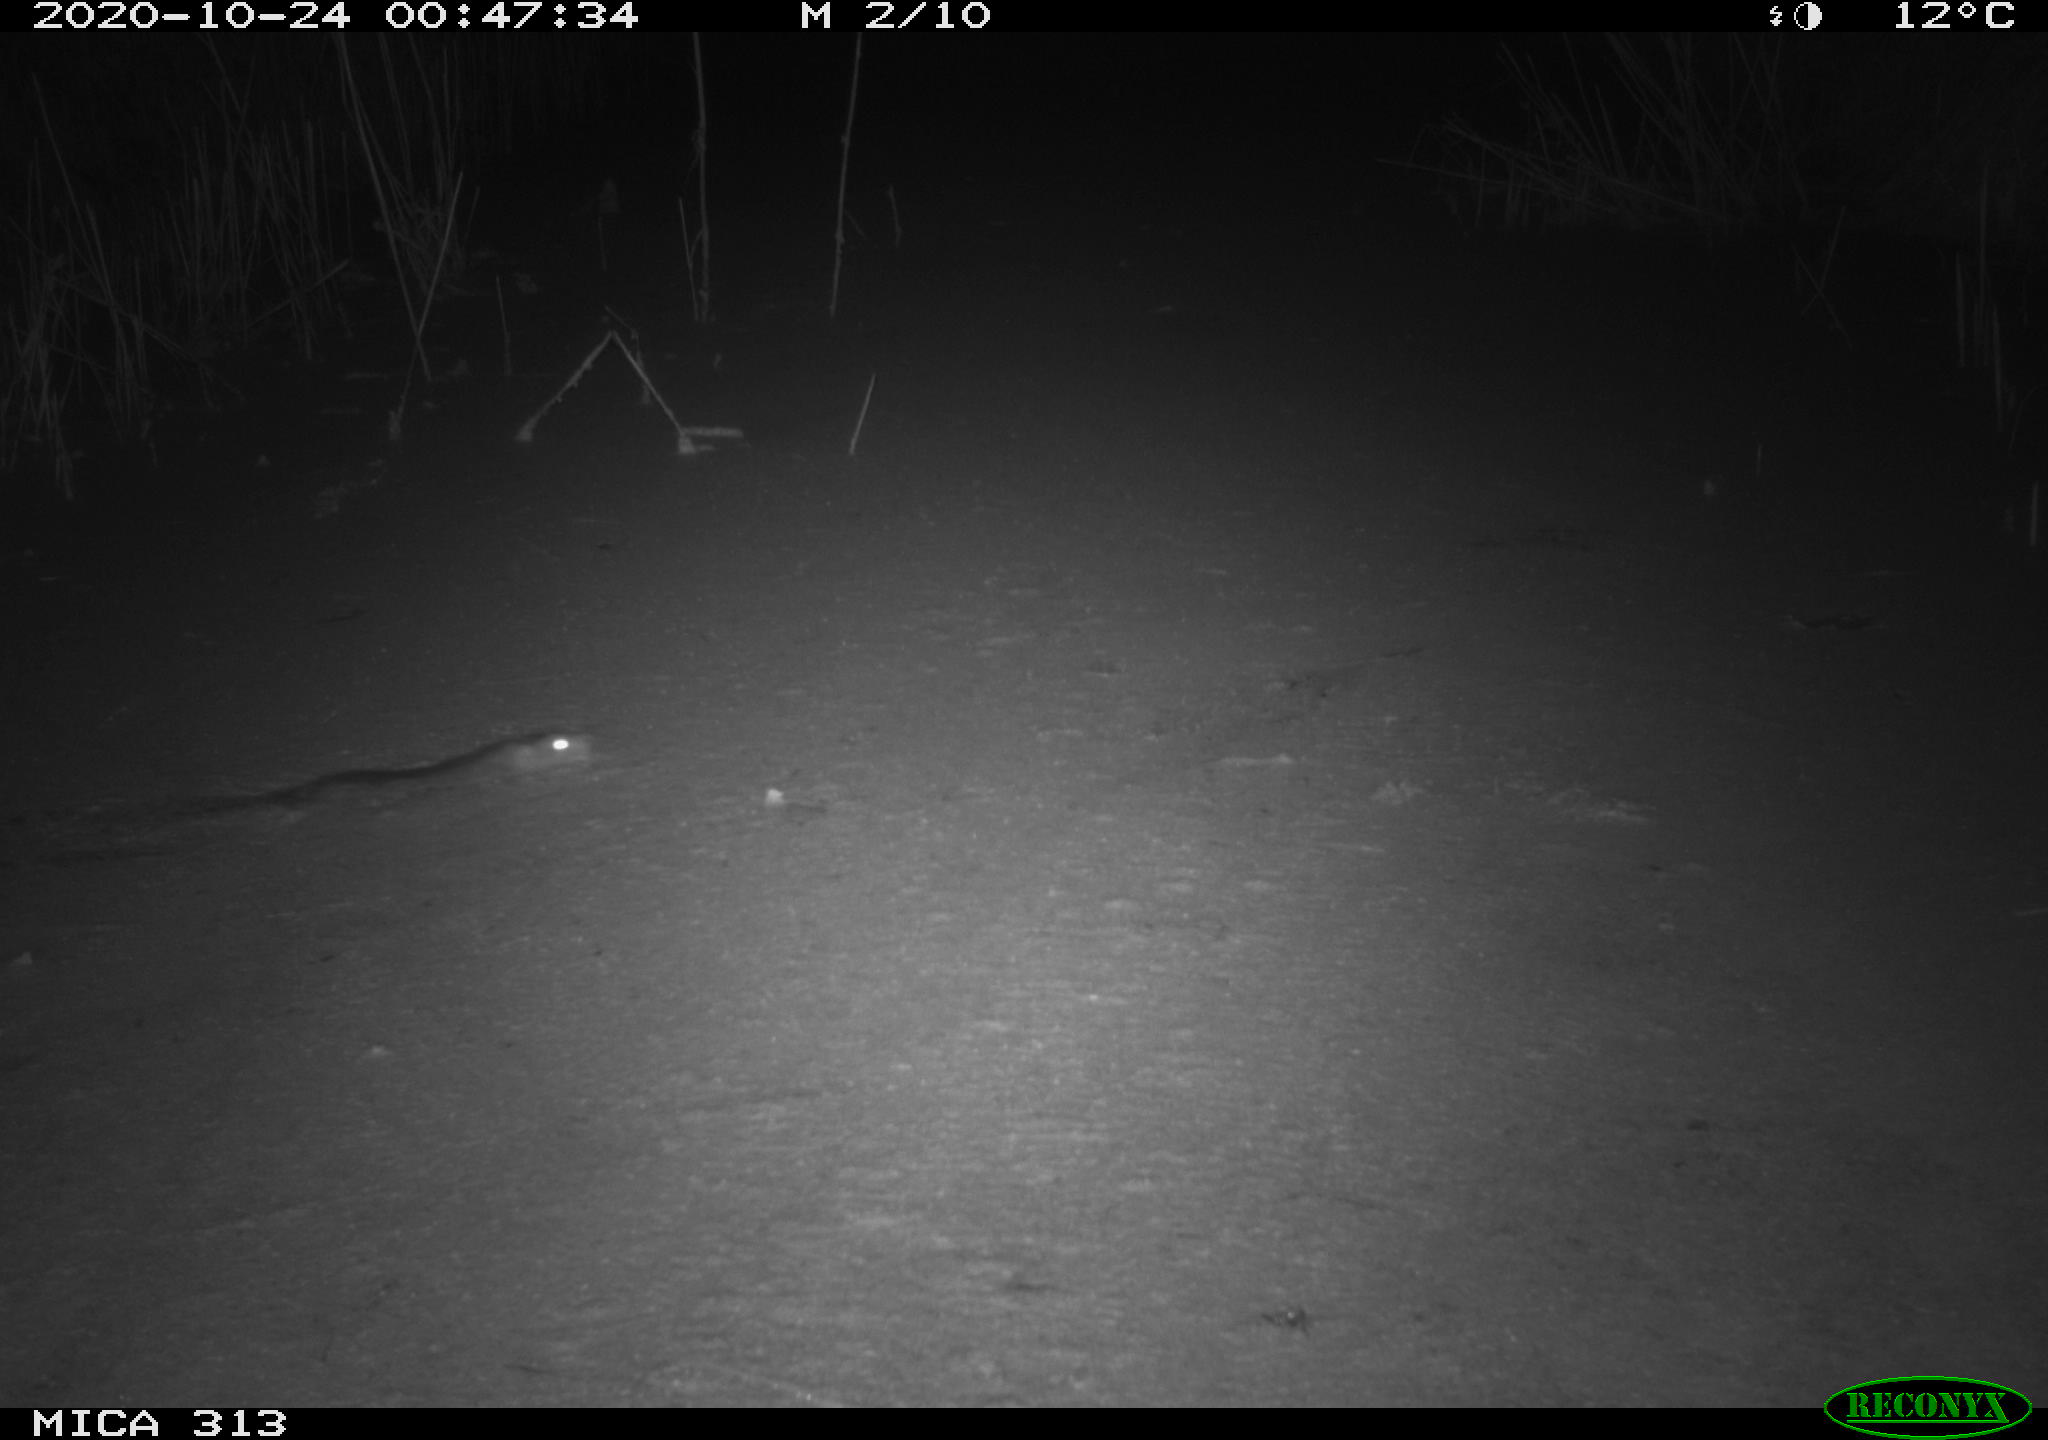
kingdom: Animalia
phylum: Chordata
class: Mammalia
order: Rodentia
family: Muridae
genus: Rattus
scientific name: Rattus norvegicus
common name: Brown rat
